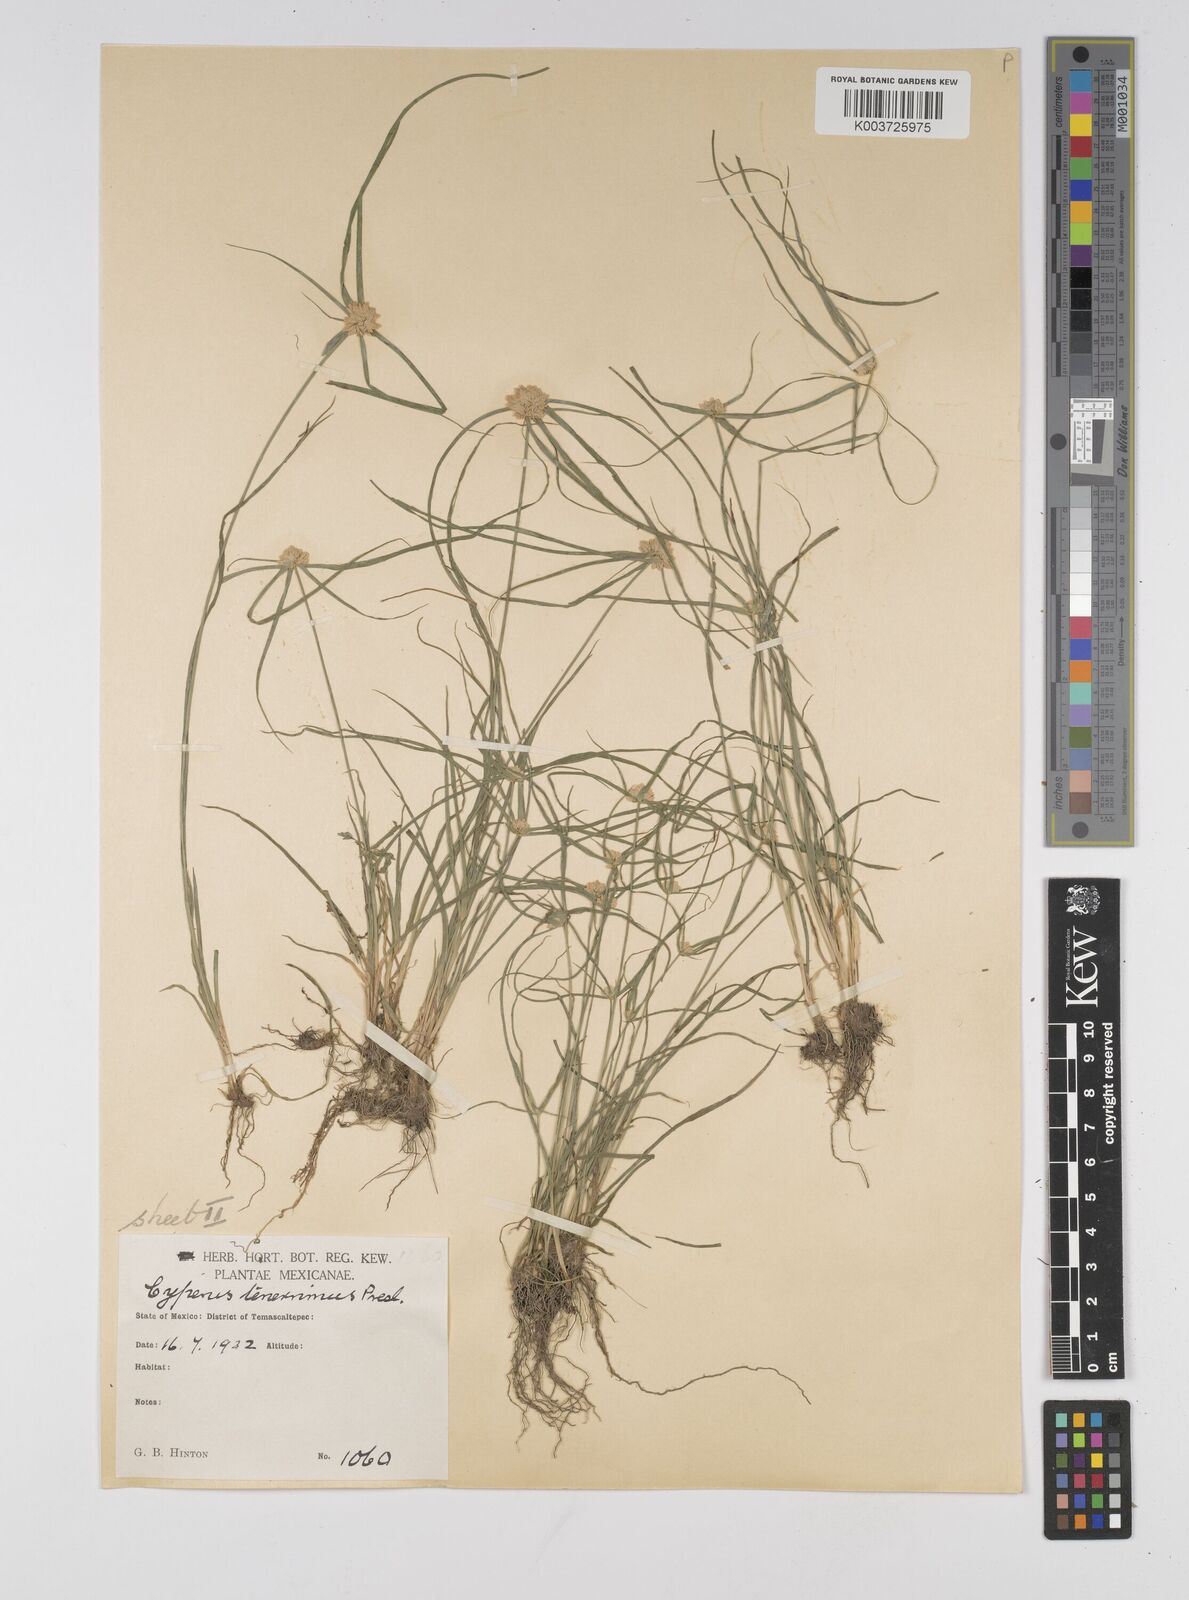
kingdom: Plantae
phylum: Tracheophyta
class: Liliopsida
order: Poales
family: Cyperaceae
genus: Cyperus
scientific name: Cyperus tenerrimus
